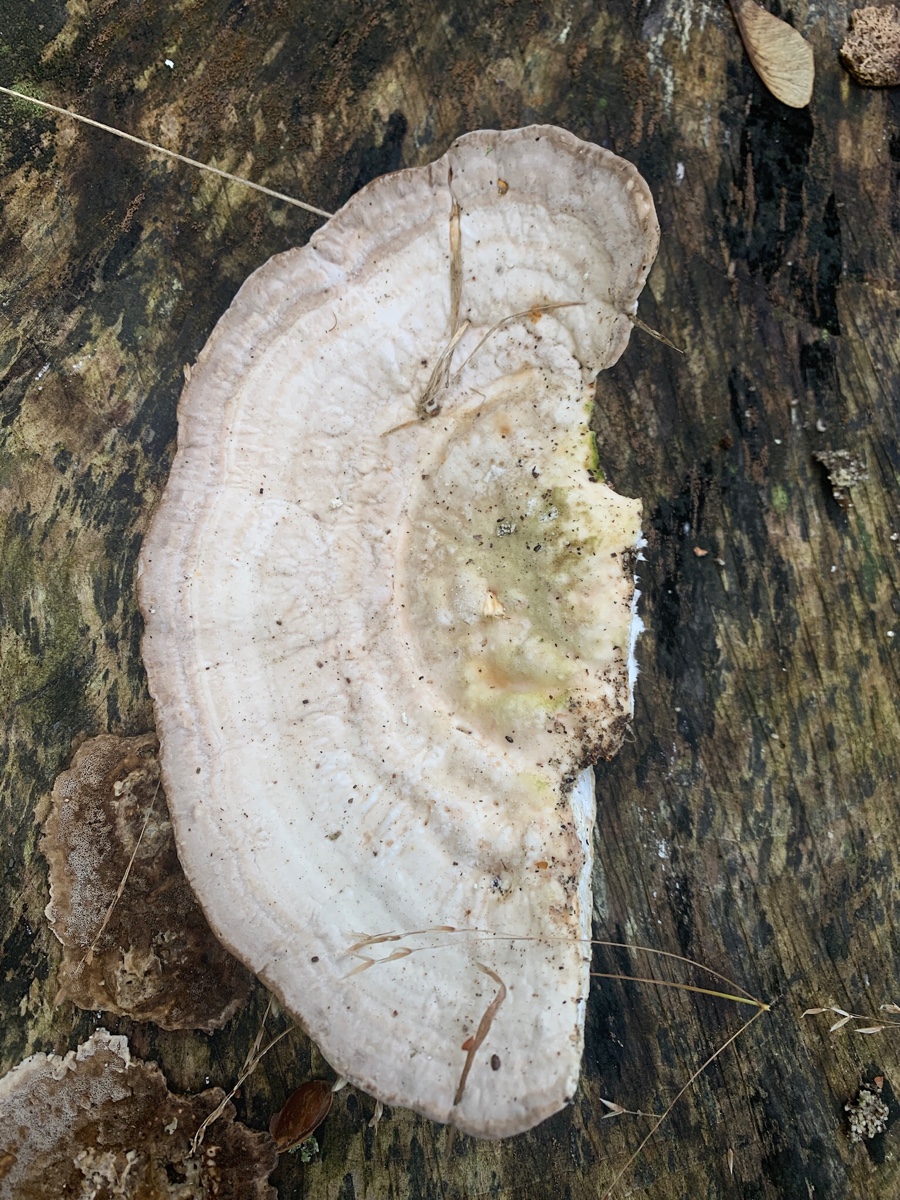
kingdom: Fungi
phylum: Basidiomycota
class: Agaricomycetes
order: Polyporales
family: Polyporaceae
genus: Trametes
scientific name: Trametes gibbosa
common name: puklet læderporesvamp
